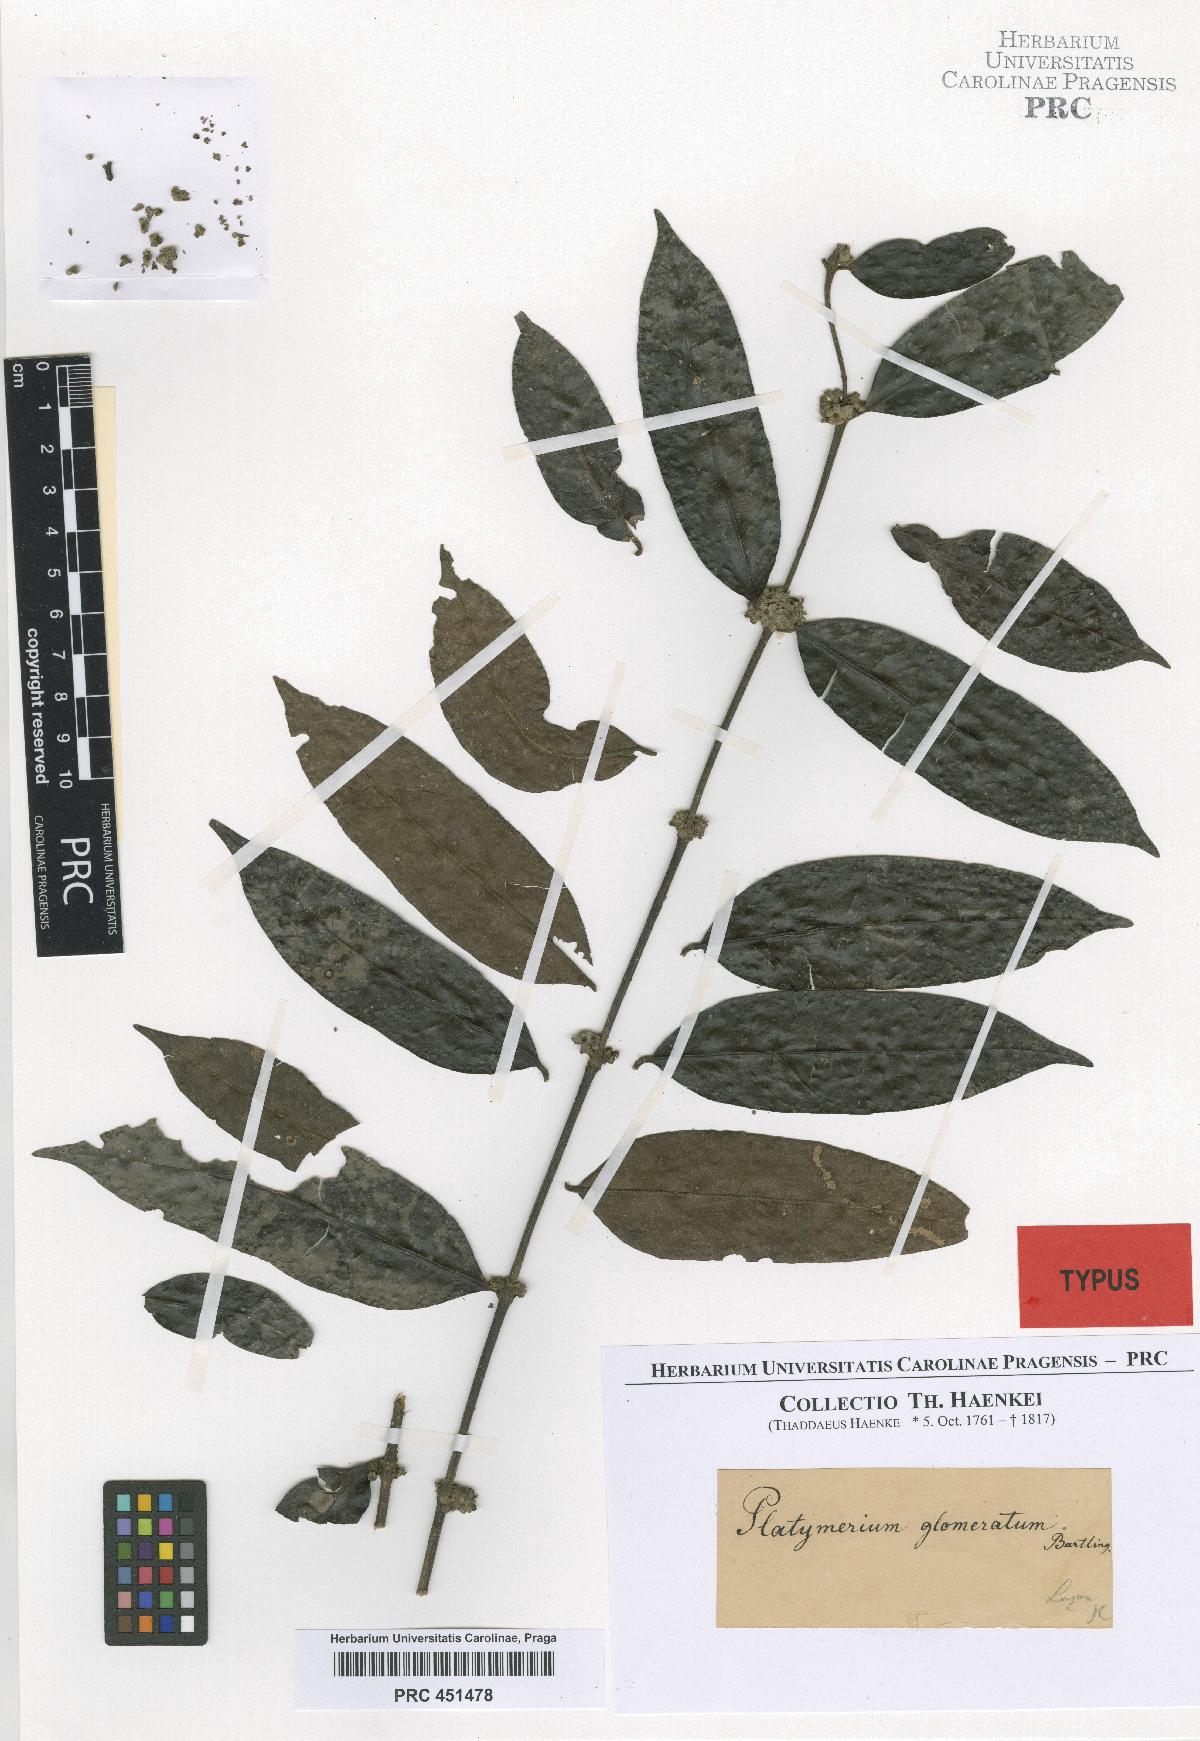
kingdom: Plantae
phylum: Tracheophyta
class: Magnoliopsida
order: Gentianales
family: Rubiaceae
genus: Villaria
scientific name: Villaria glomerata
